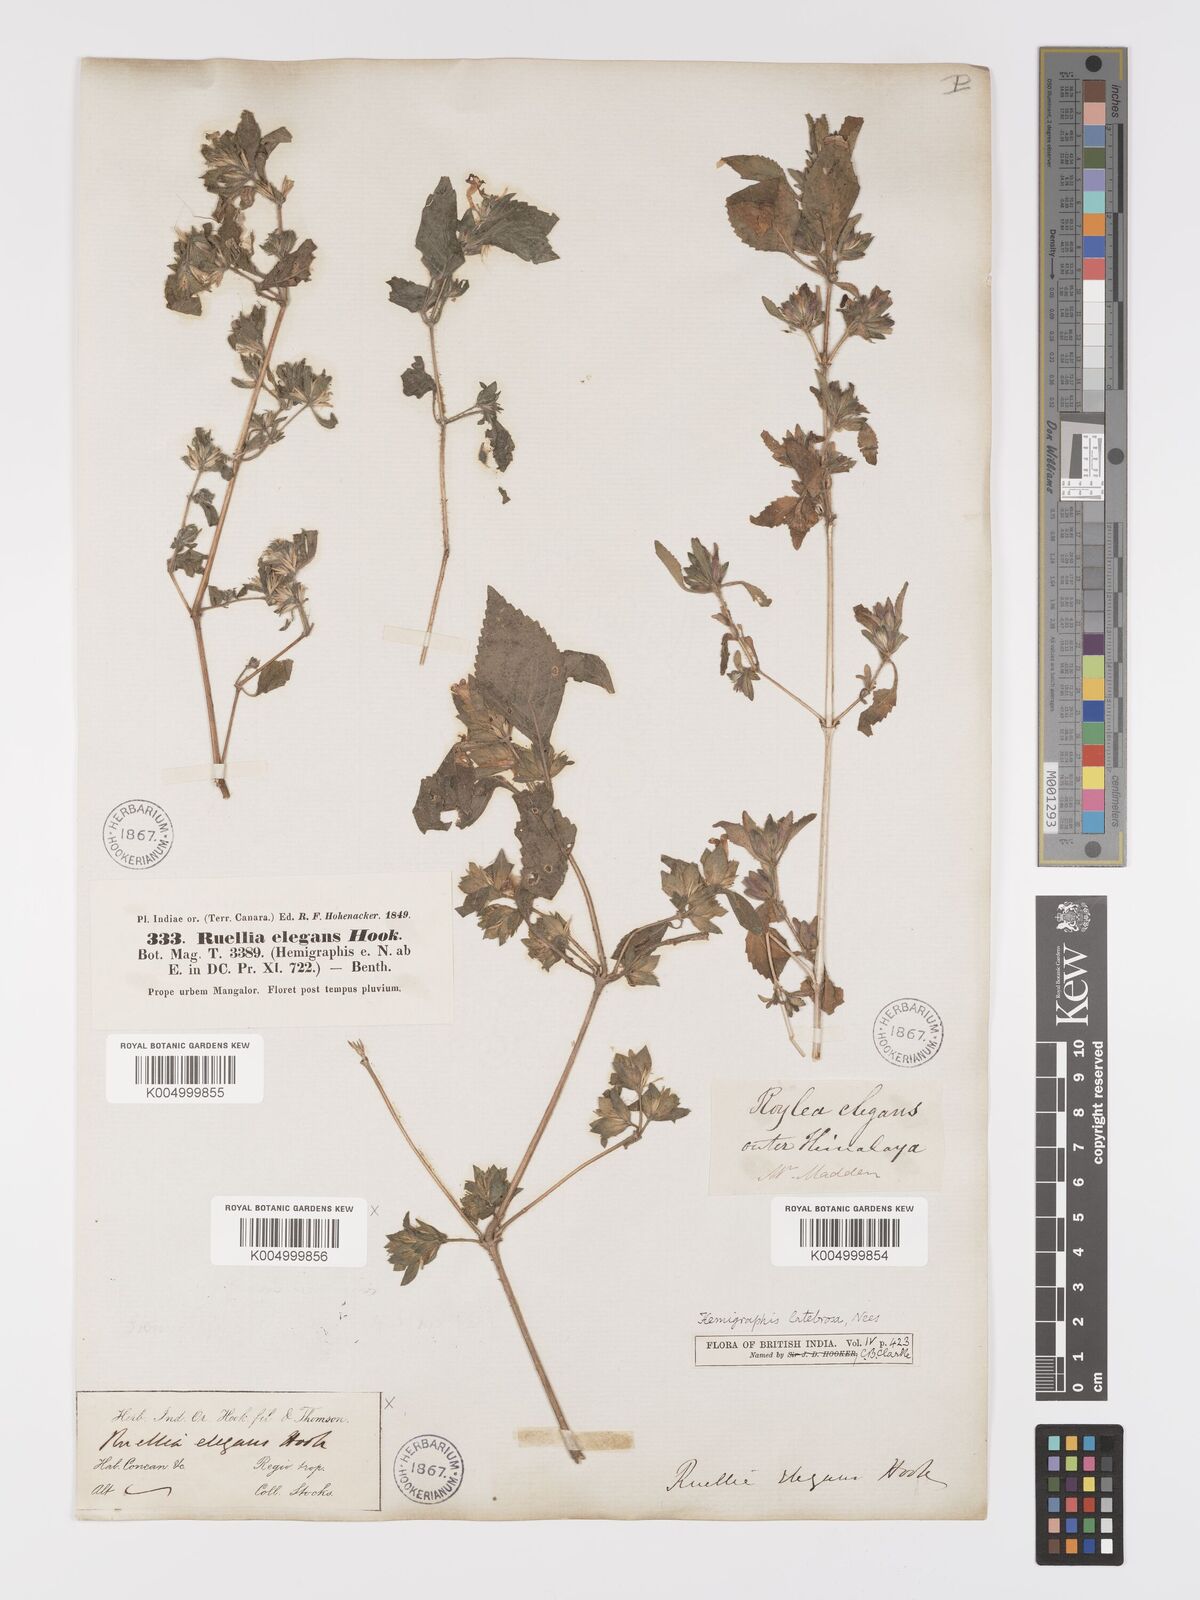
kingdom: Plantae
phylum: Tracheophyta
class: Magnoliopsida
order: Lamiales
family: Acanthaceae
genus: Strobilanthes
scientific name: Strobilanthes pavala
